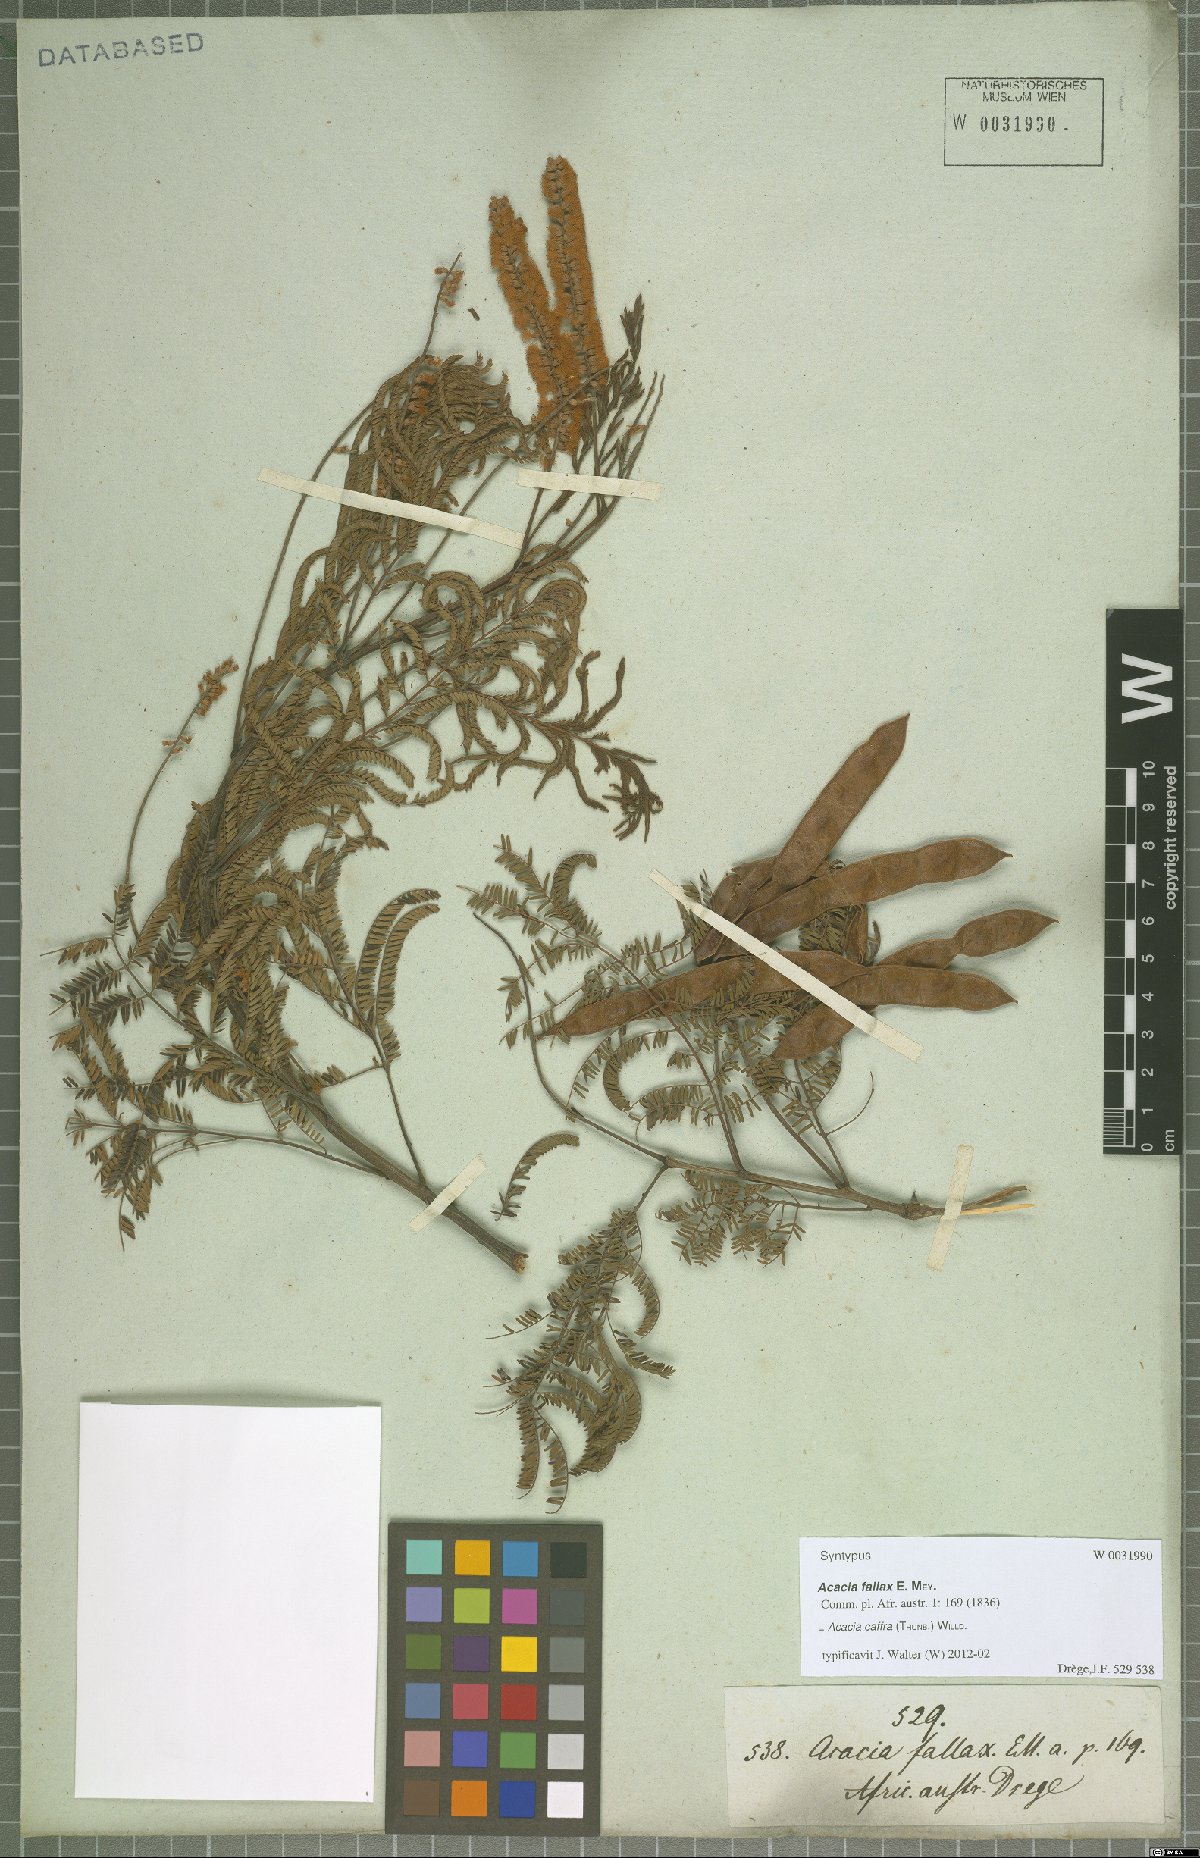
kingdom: Plantae
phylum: Tracheophyta
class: Magnoliopsida
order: Fabales
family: Fabaceae
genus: Senegalia
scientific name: Senegalia caffra
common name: Cat thorn
